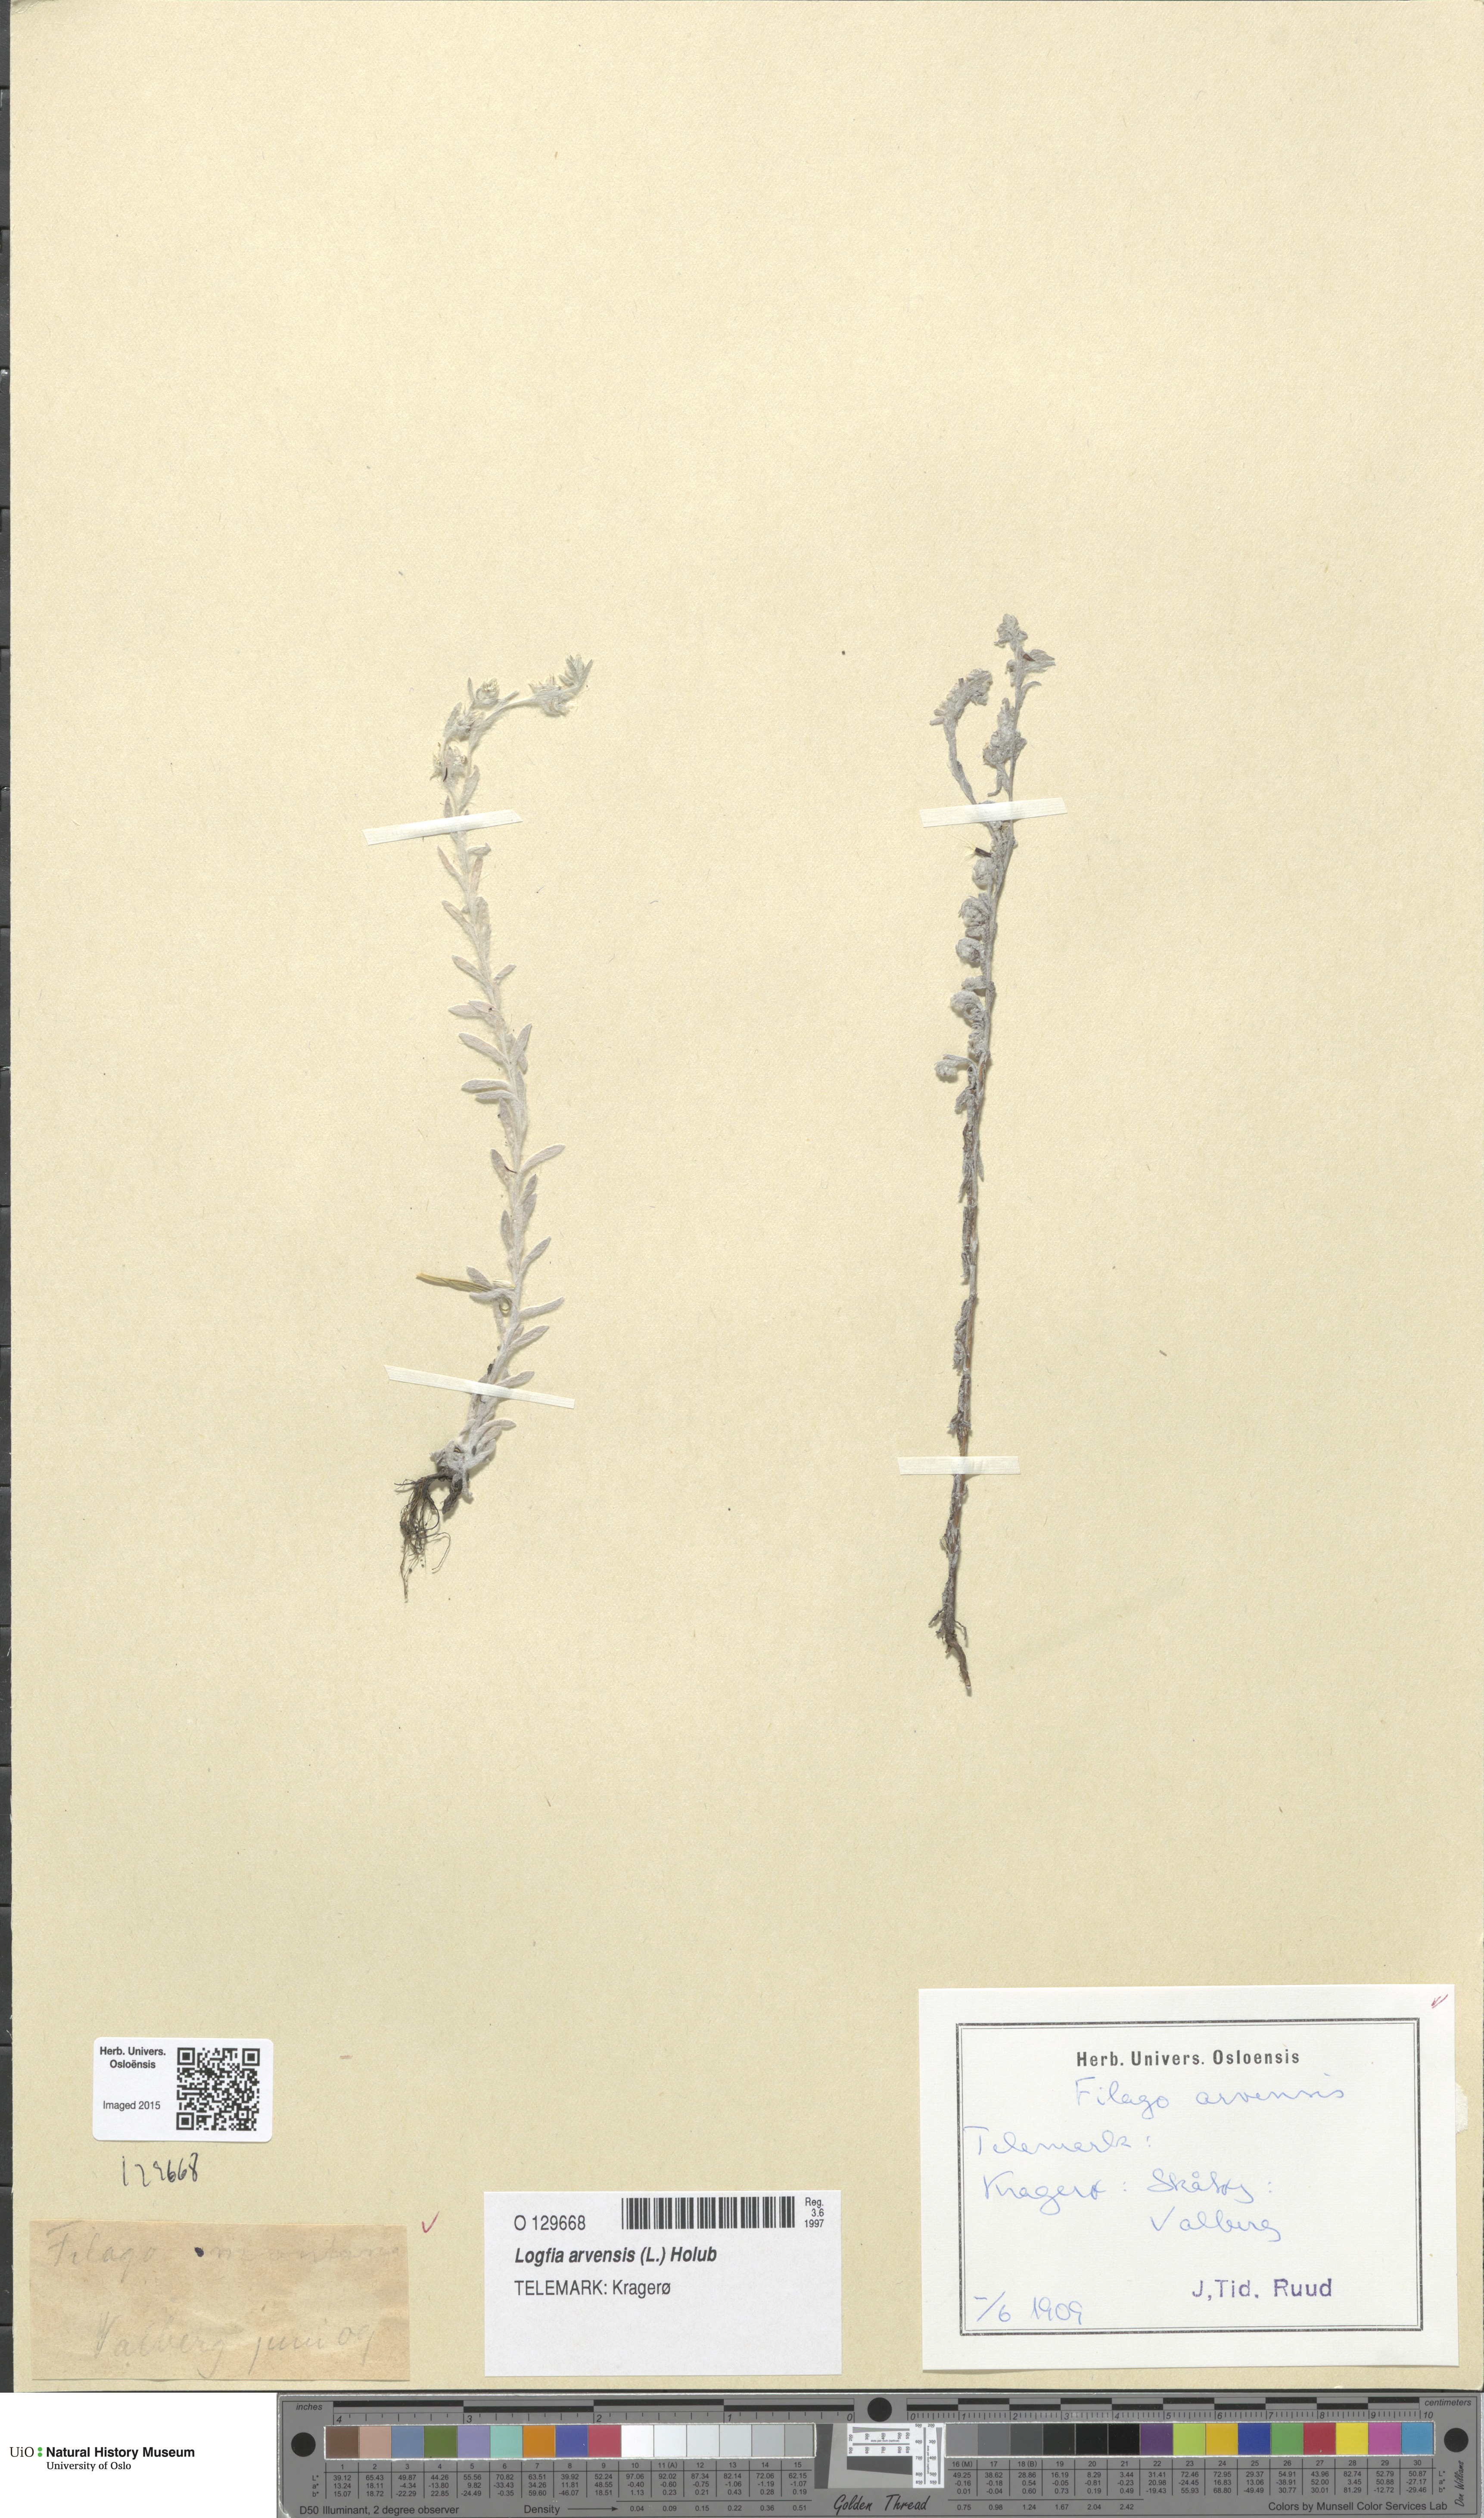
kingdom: Plantae
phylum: Tracheophyta
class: Magnoliopsida
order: Asterales
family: Asteraceae
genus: Filago
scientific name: Filago arvensis
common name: Field cudweed
